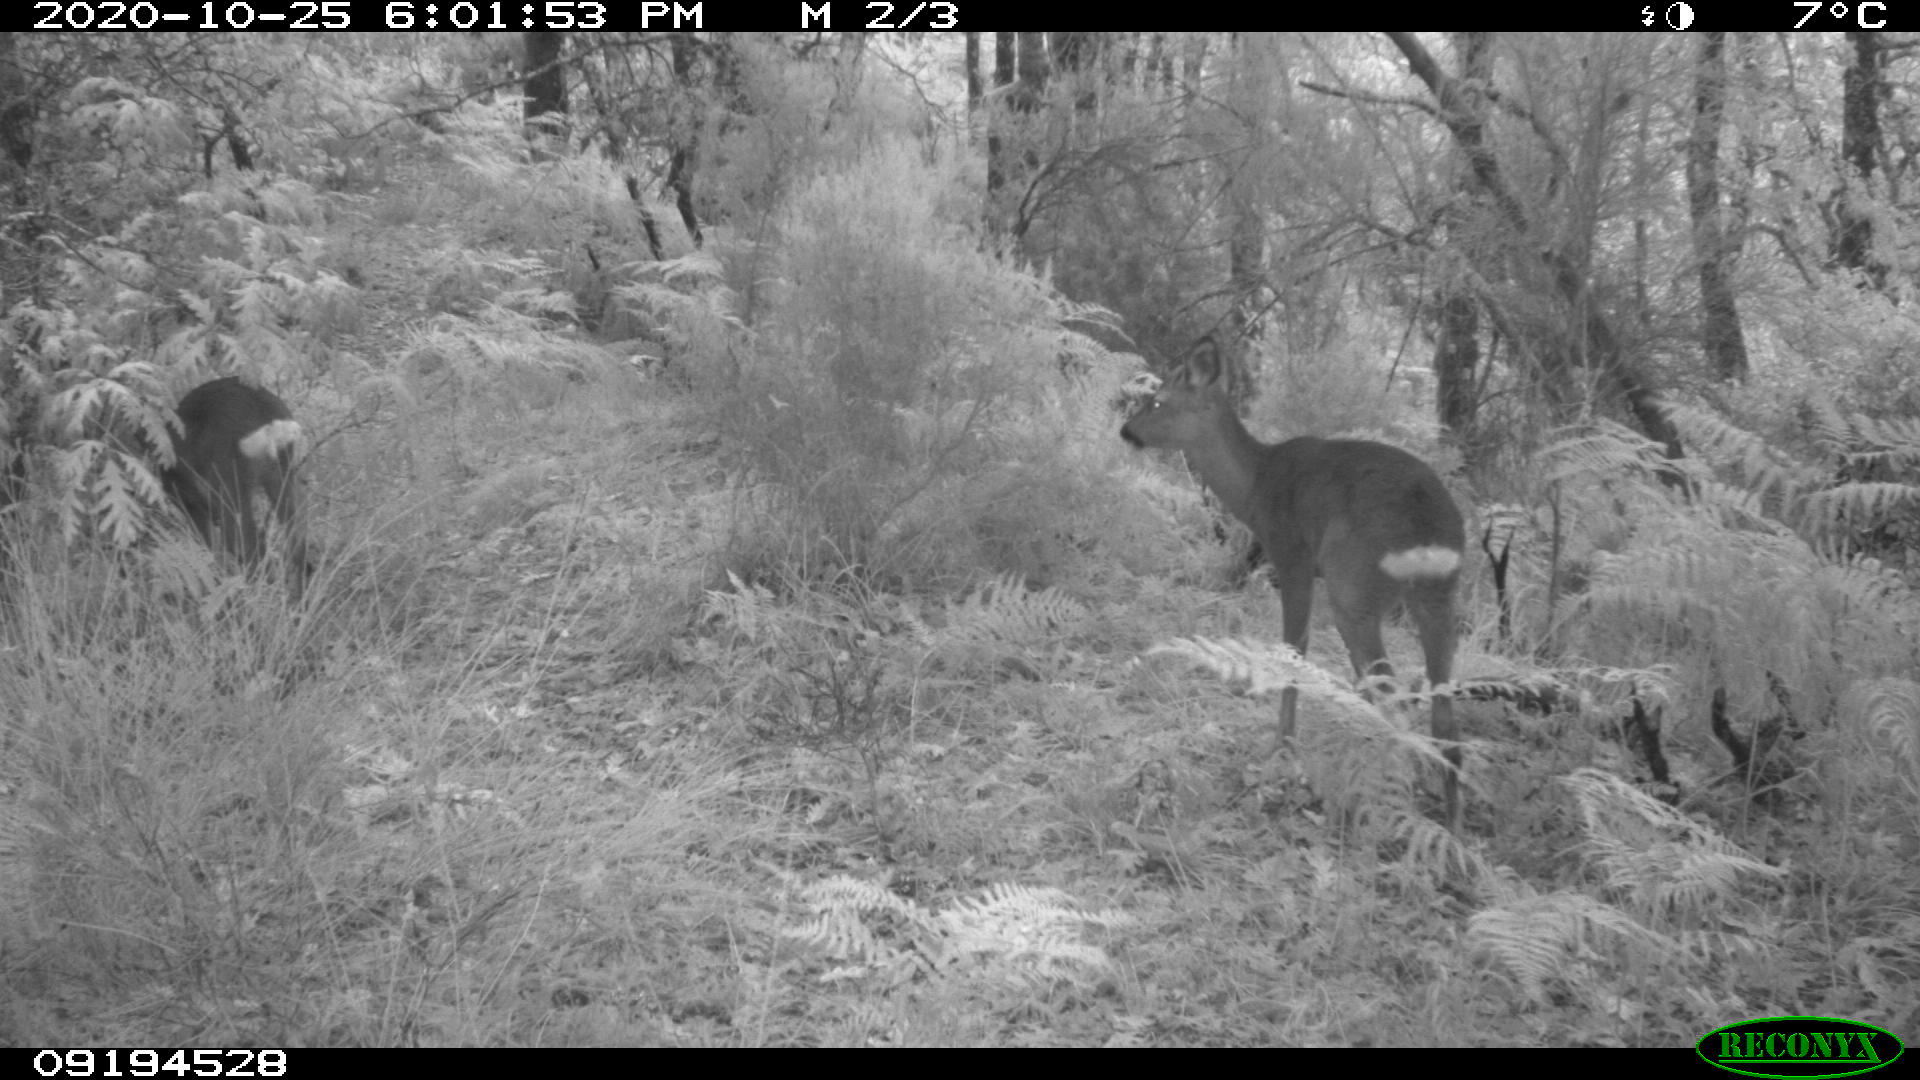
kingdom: Animalia
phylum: Chordata
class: Mammalia
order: Artiodactyla
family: Cervidae
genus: Capreolus
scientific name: Capreolus capreolus
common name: Western roe deer
